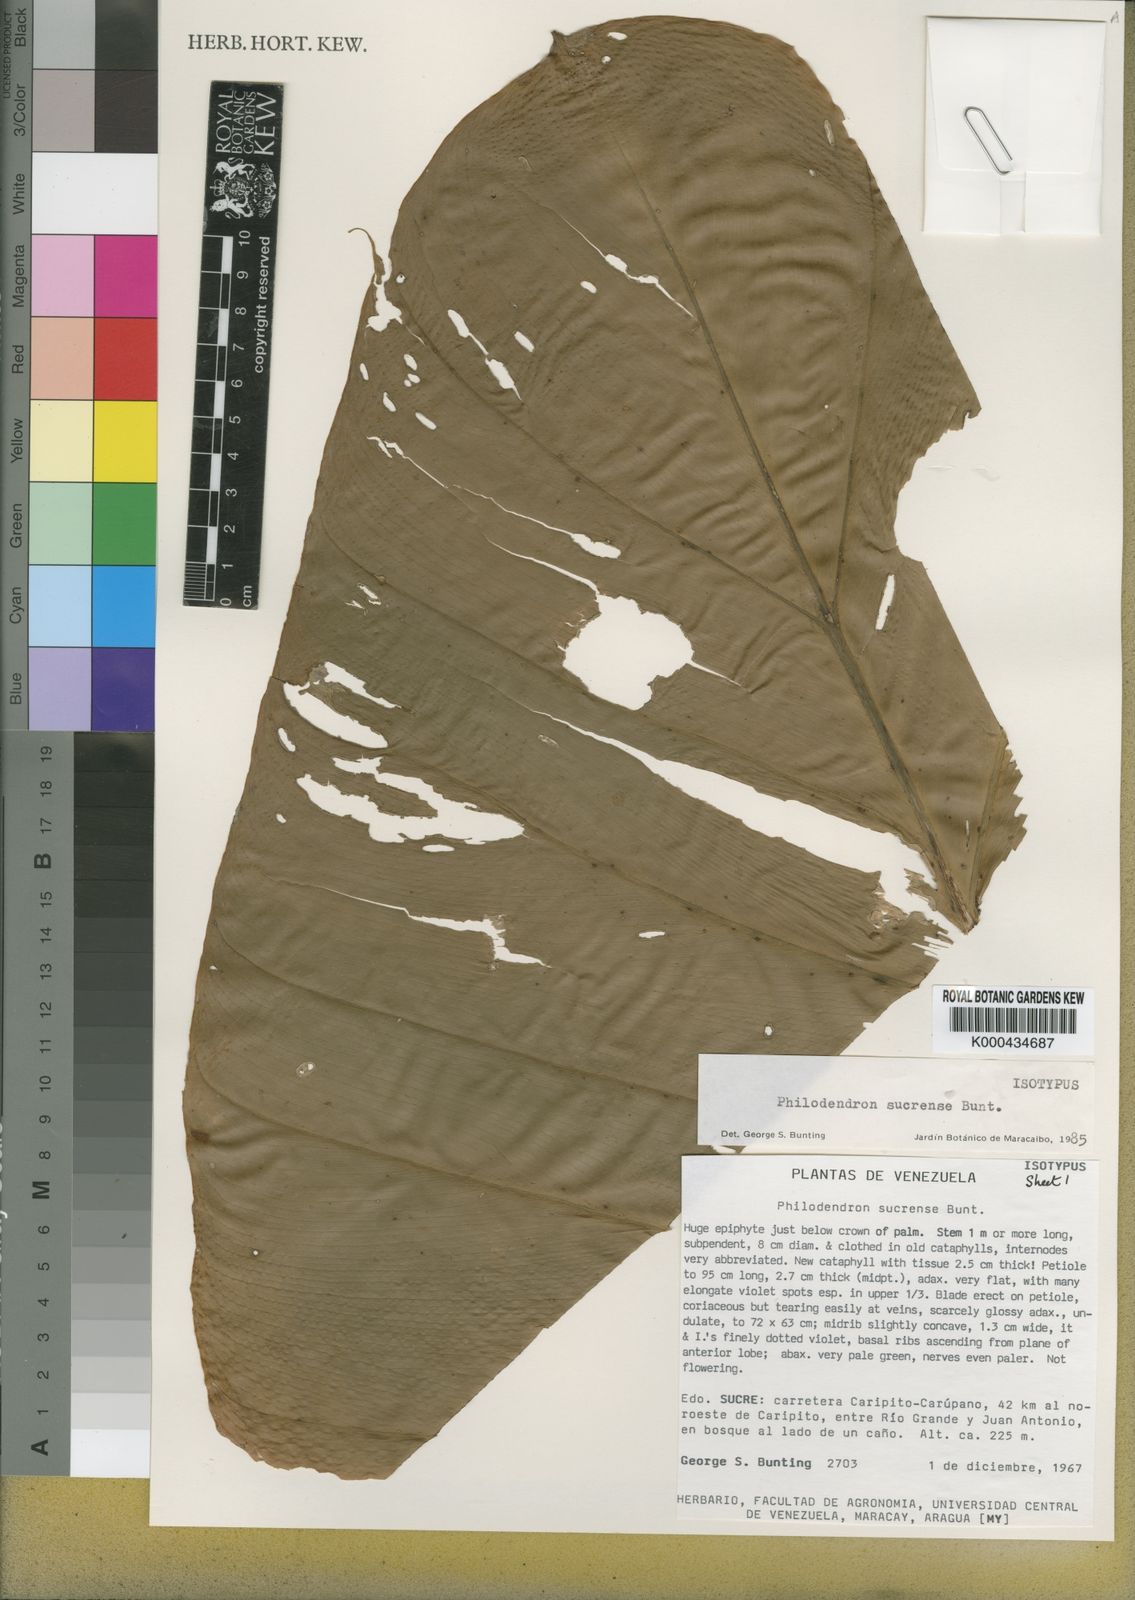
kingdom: Plantae
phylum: Tracheophyta
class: Liliopsida
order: Alismatales
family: Araceae
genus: Philodendron
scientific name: Philodendron sucrense
